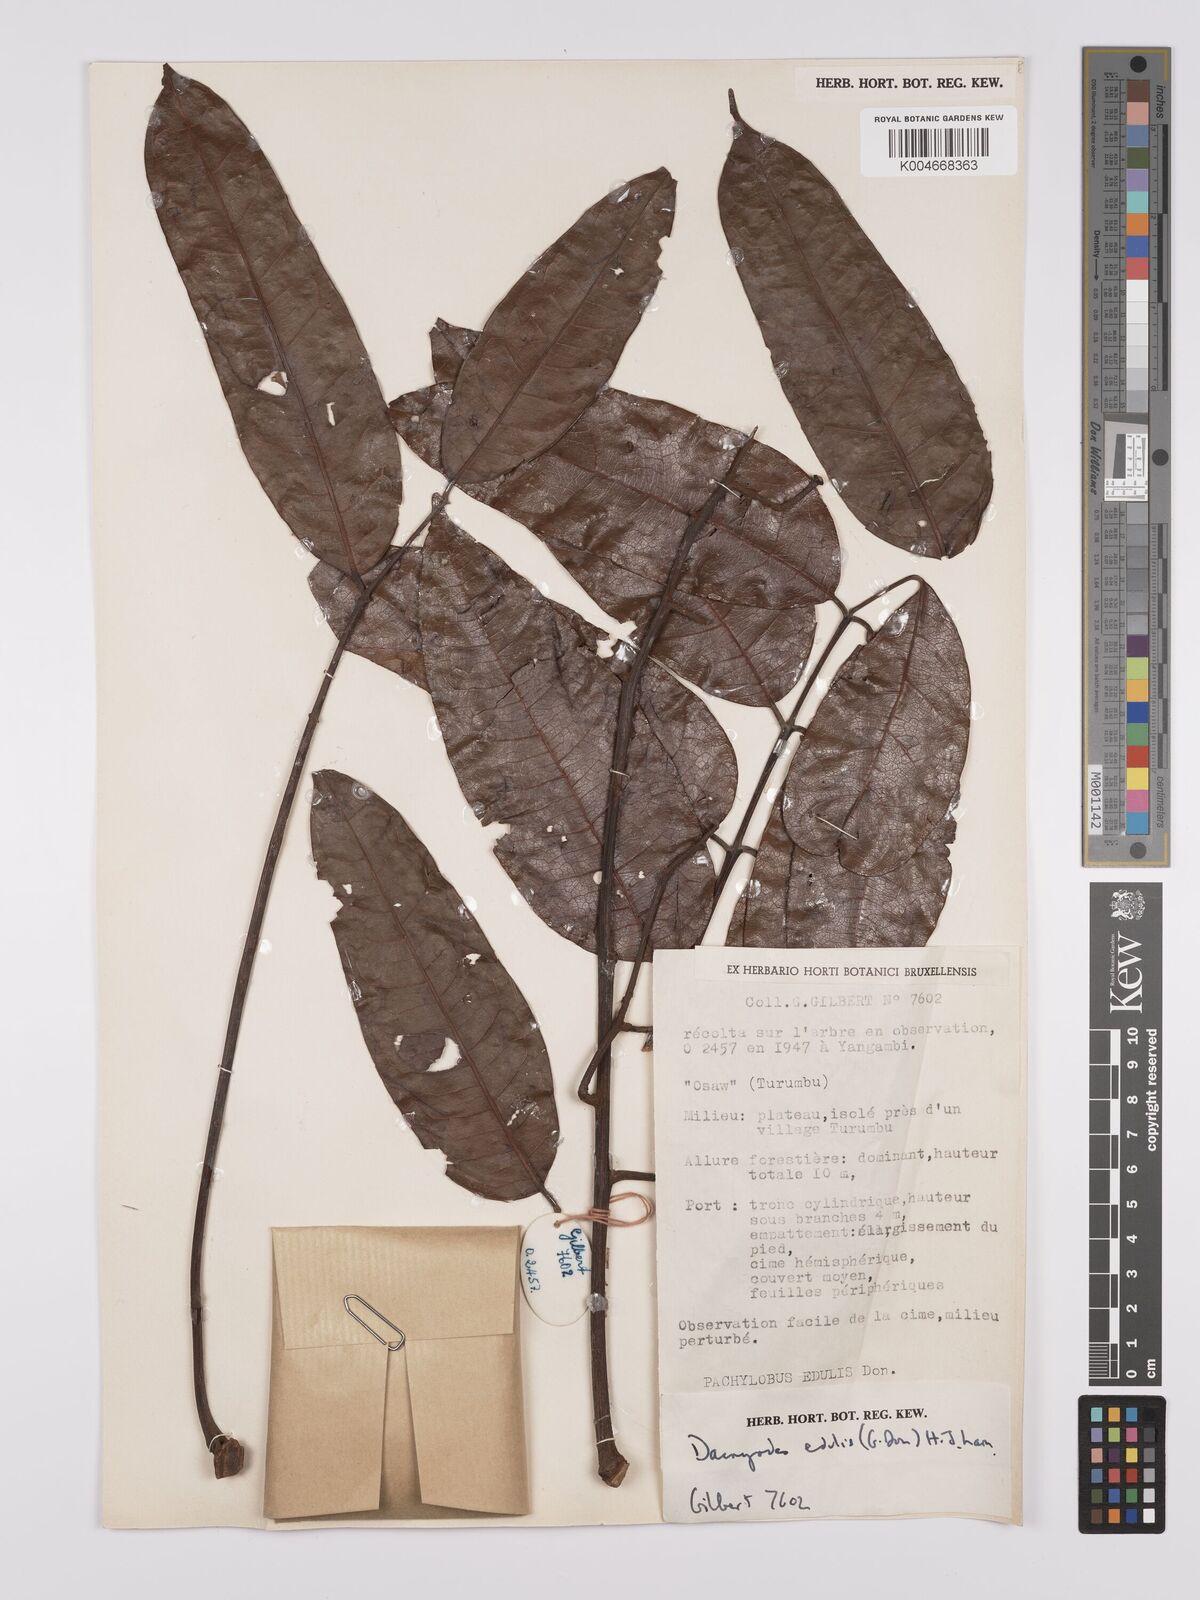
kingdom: Plantae
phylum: Tracheophyta
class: Magnoliopsida
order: Sapindales
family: Burseraceae
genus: Pachylobus
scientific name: Pachylobus edulis
